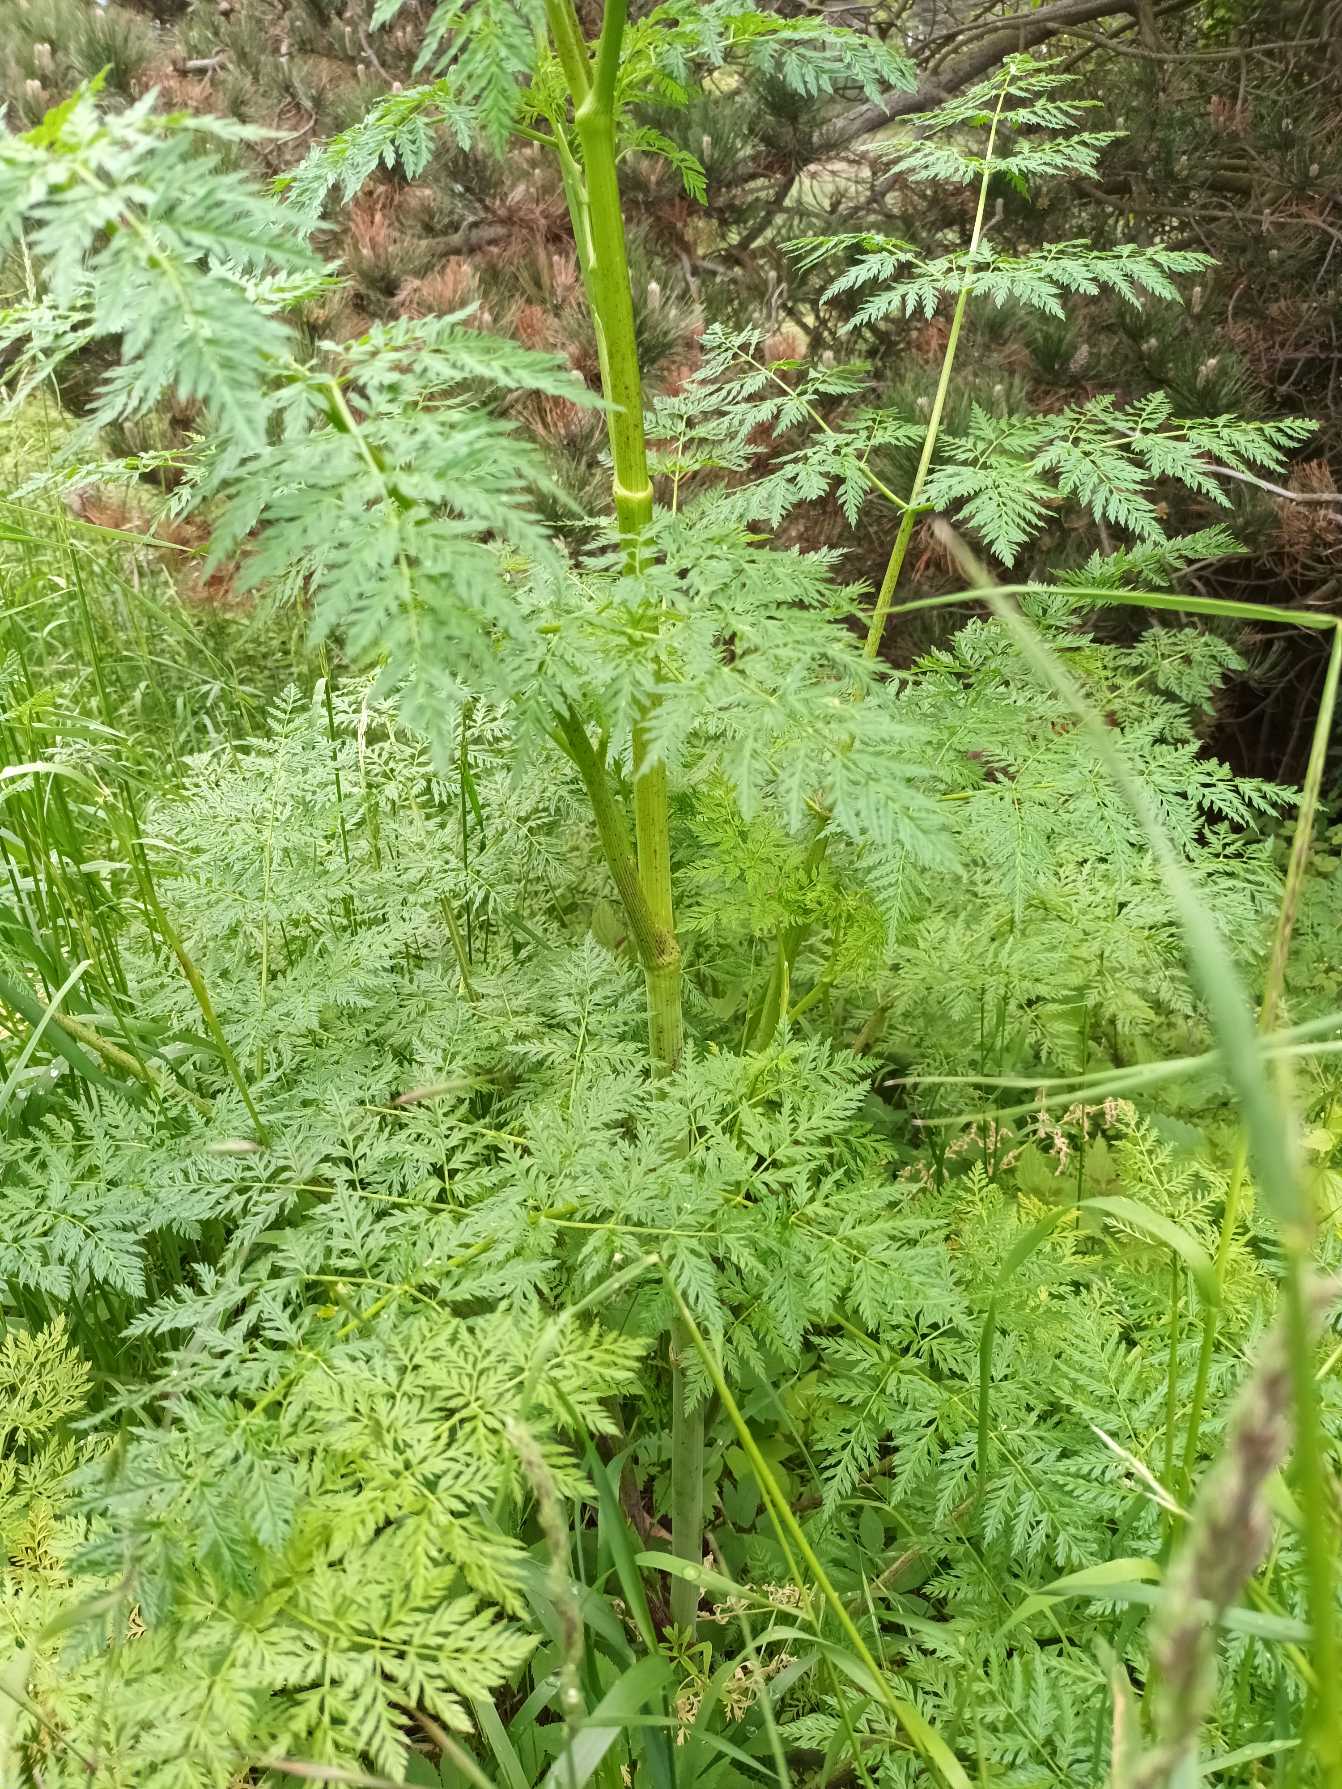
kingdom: Plantae
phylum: Tracheophyta
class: Magnoliopsida
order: Apiales
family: Apiaceae
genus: Conium
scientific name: Conium maculatum
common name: Skarntyde
